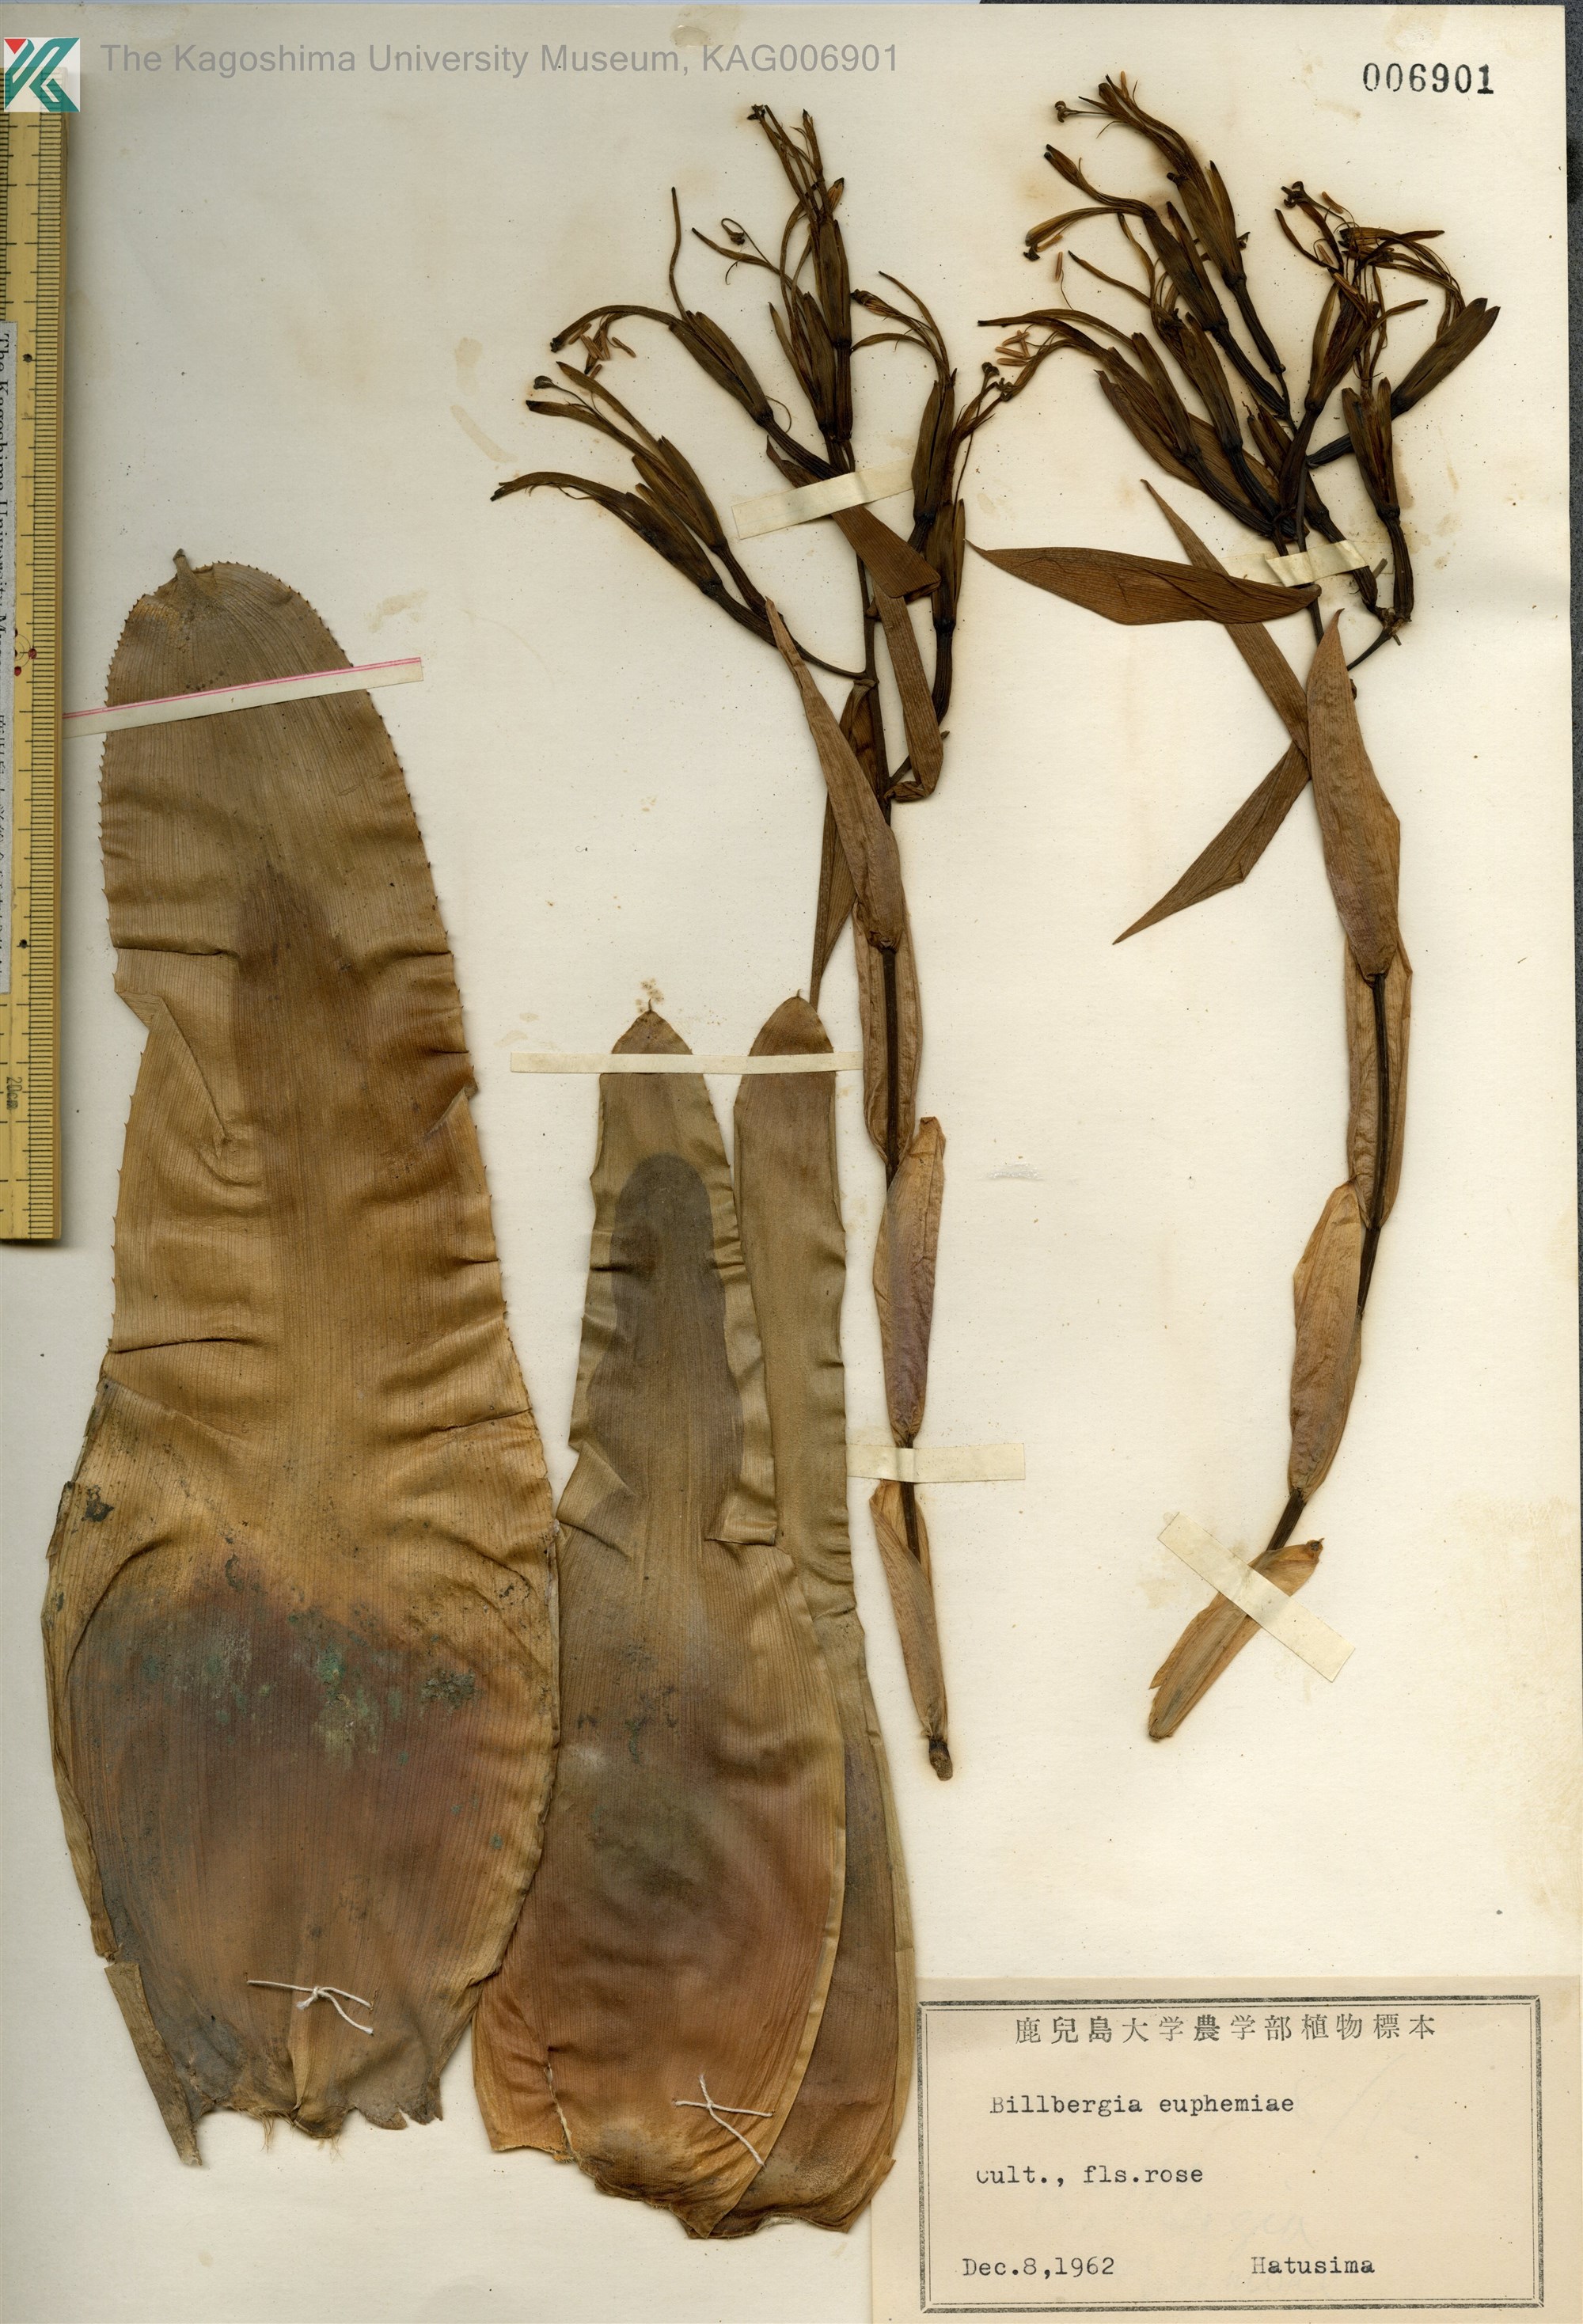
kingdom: Plantae
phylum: Tracheophyta
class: Liliopsida
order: Poales
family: Bromeliaceae
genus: Billbergia
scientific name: Billbergia euphemiae
